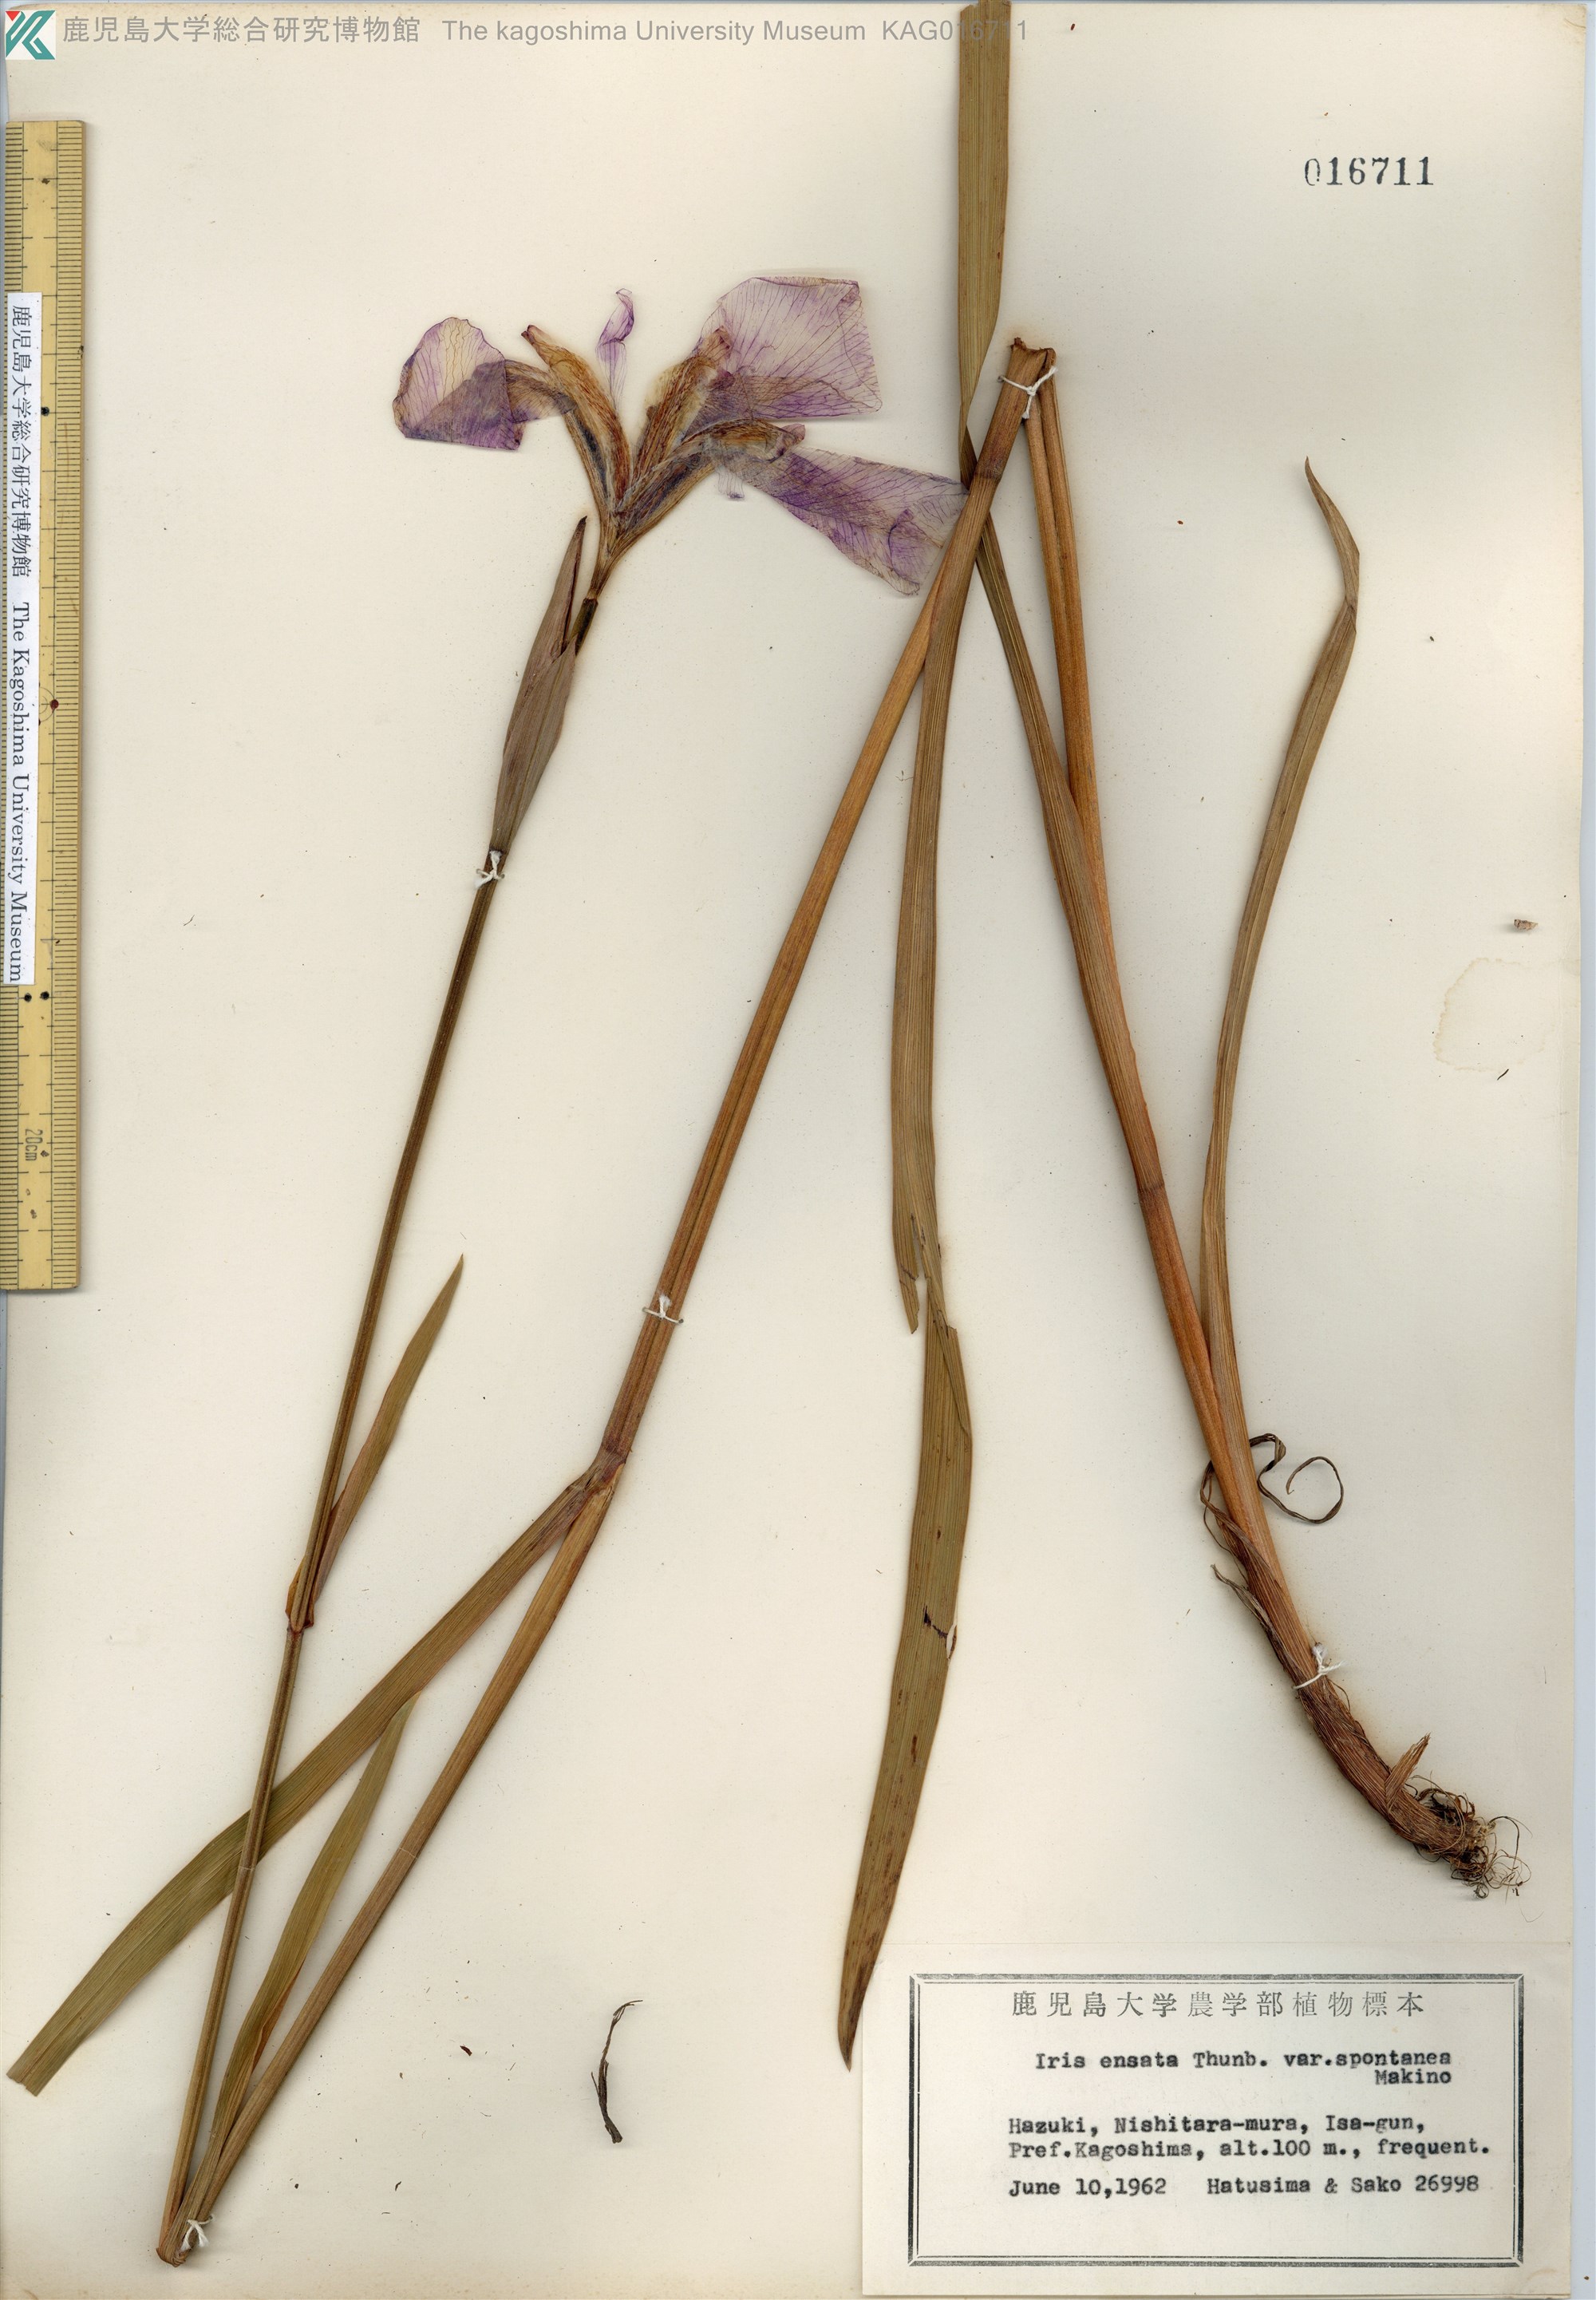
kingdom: Plantae
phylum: Tracheophyta
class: Liliopsida
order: Asparagales
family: Iridaceae
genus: Iris
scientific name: Iris ensata
